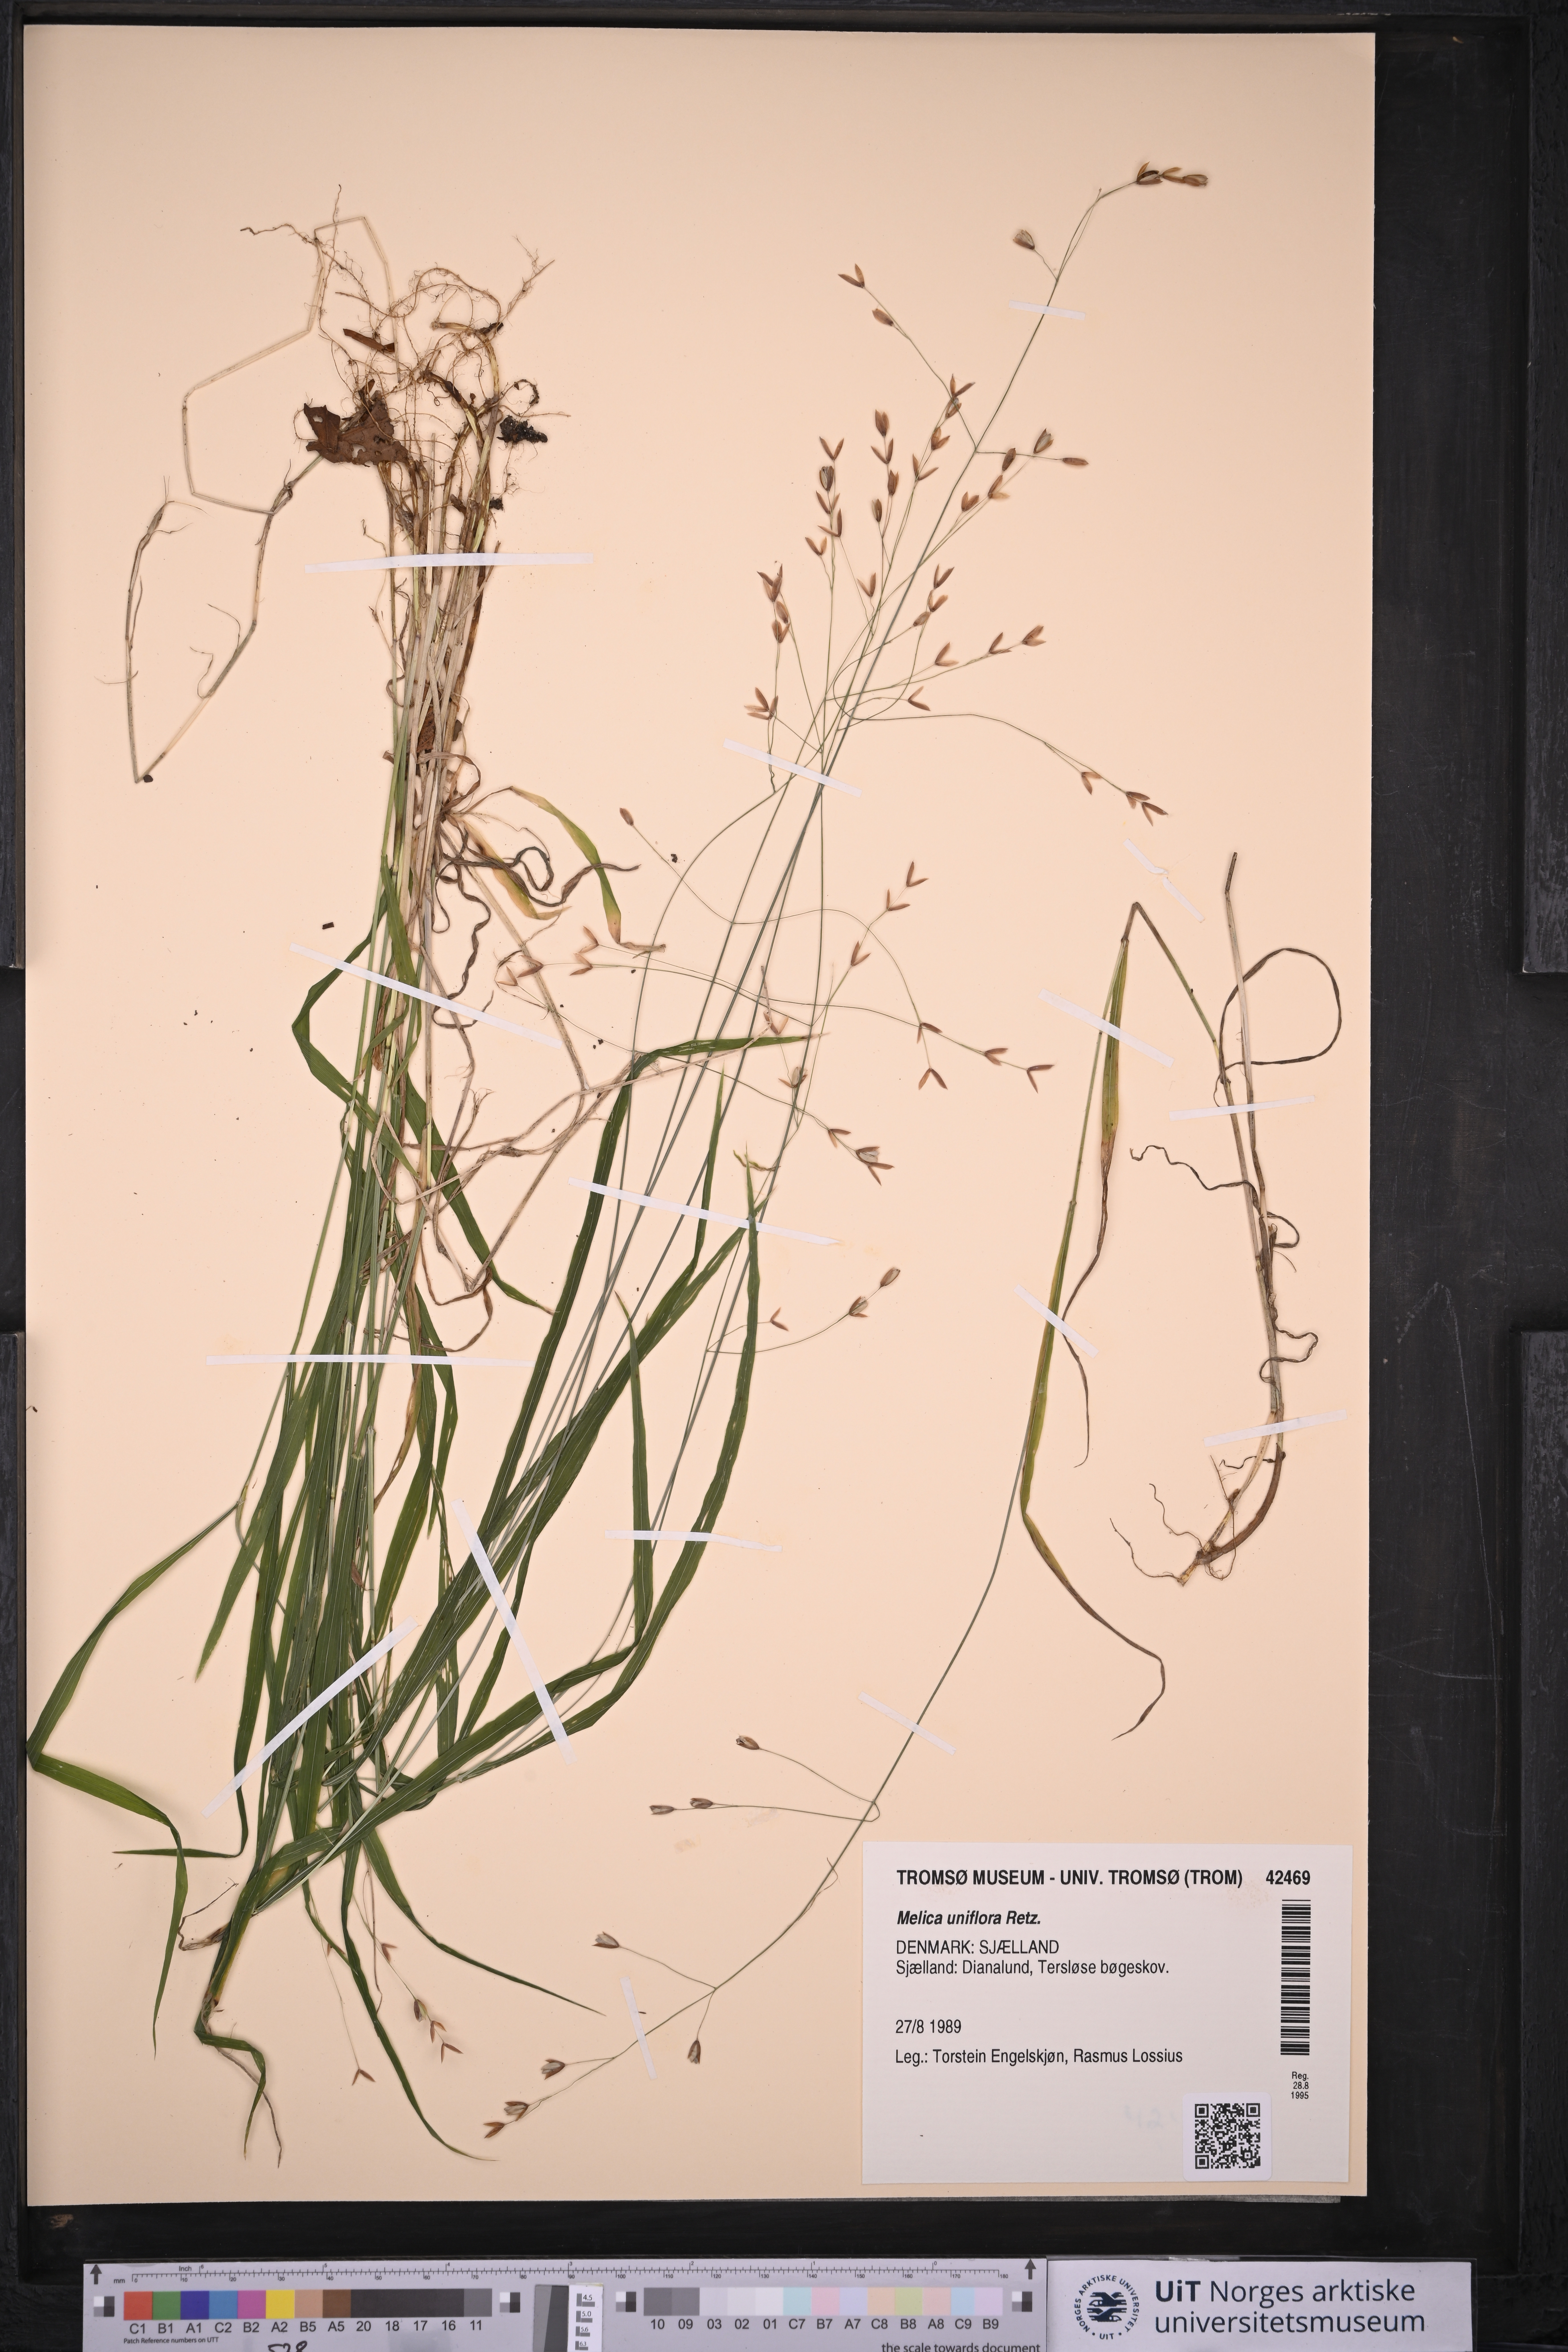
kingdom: Plantae
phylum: Tracheophyta
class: Liliopsida
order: Poales
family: Poaceae
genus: Melica
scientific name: Melica uniflora
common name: Wood melick
